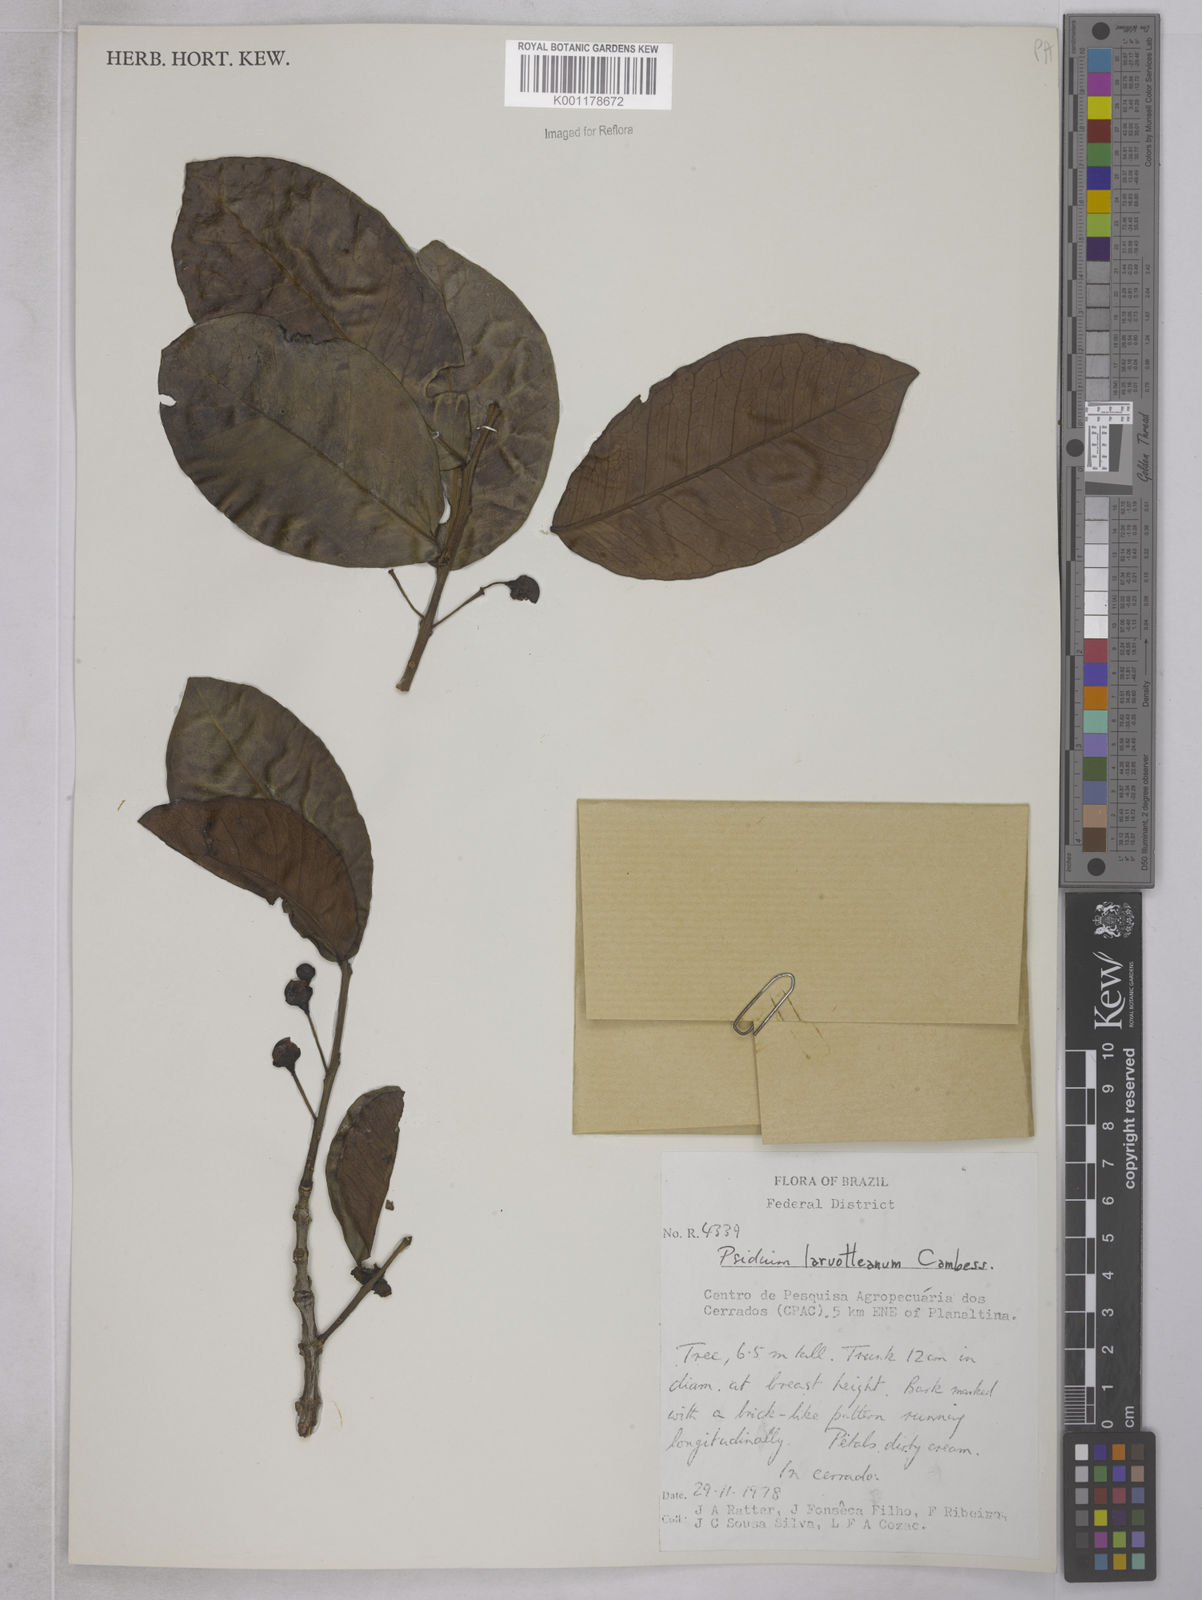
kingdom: Plantae
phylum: Tracheophyta
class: Magnoliopsida
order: Myrtales
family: Myrtaceae
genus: Psidium
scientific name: Psidium larueotteanum
